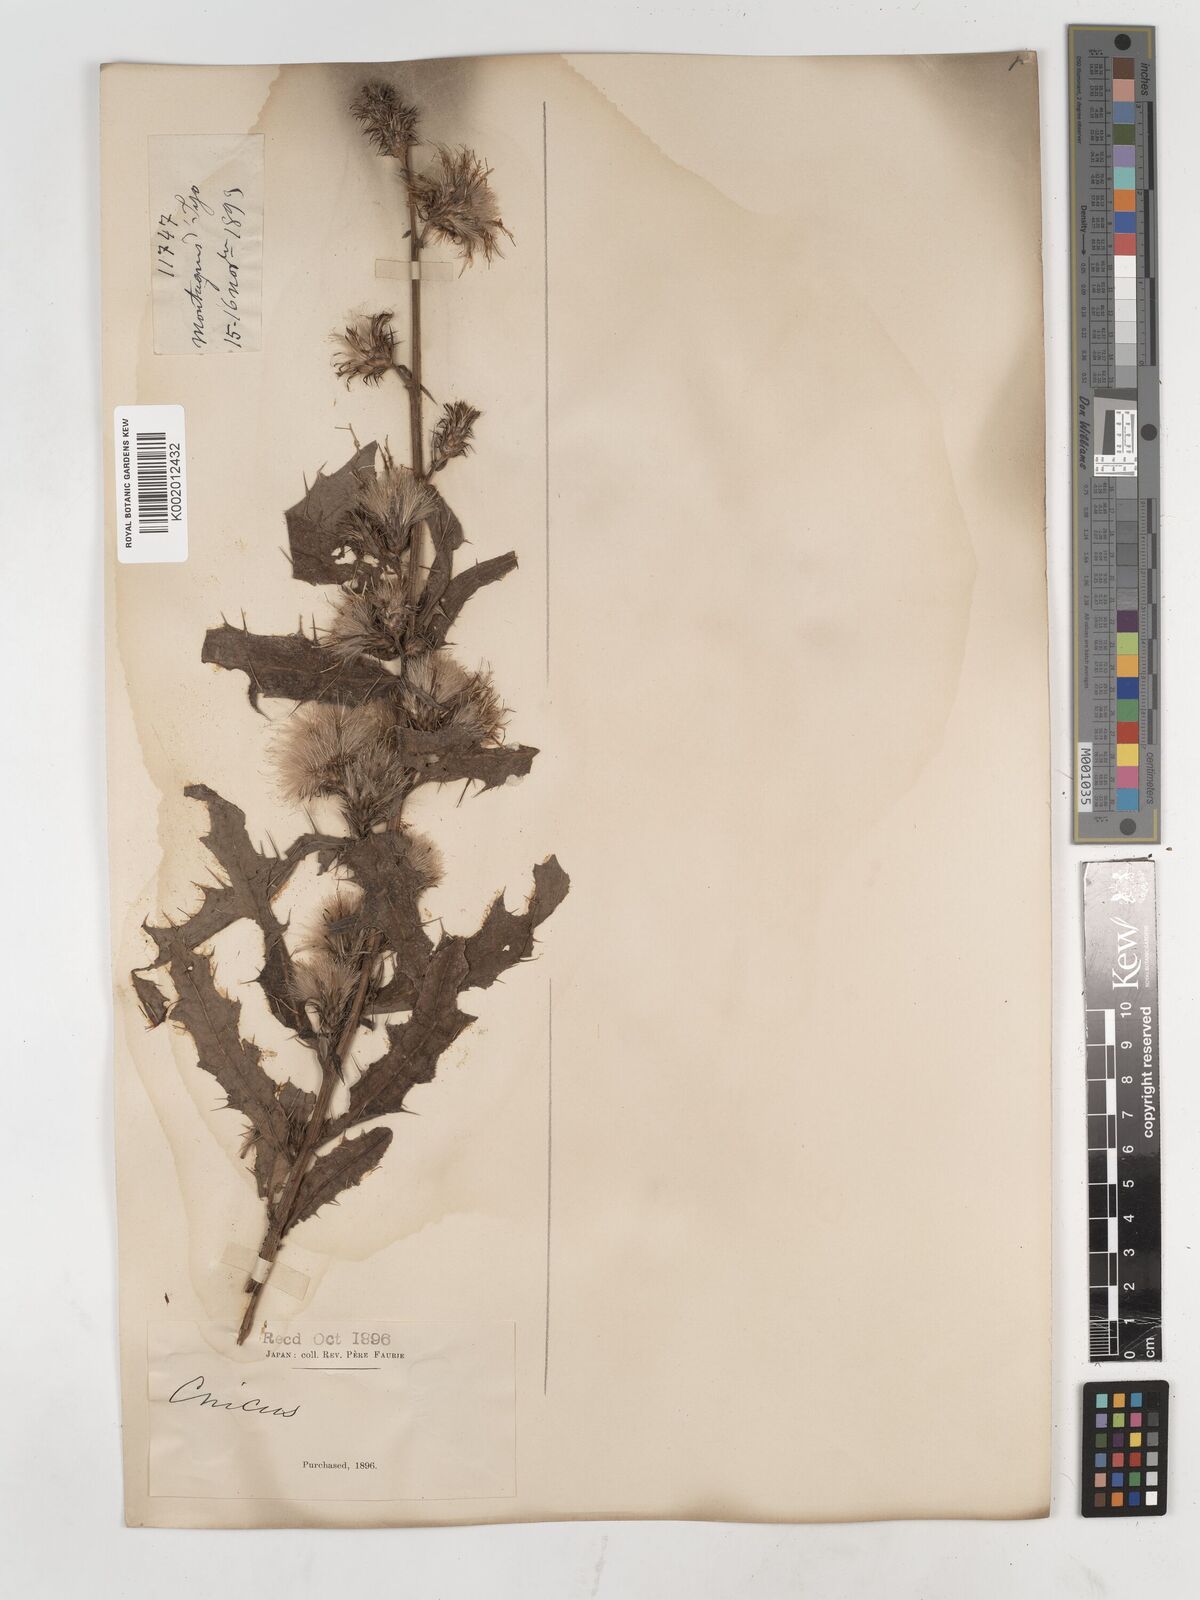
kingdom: Plantae
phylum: Tracheophyta
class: Magnoliopsida
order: Asterales
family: Asteraceae
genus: Cirsium
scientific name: Cirsium
